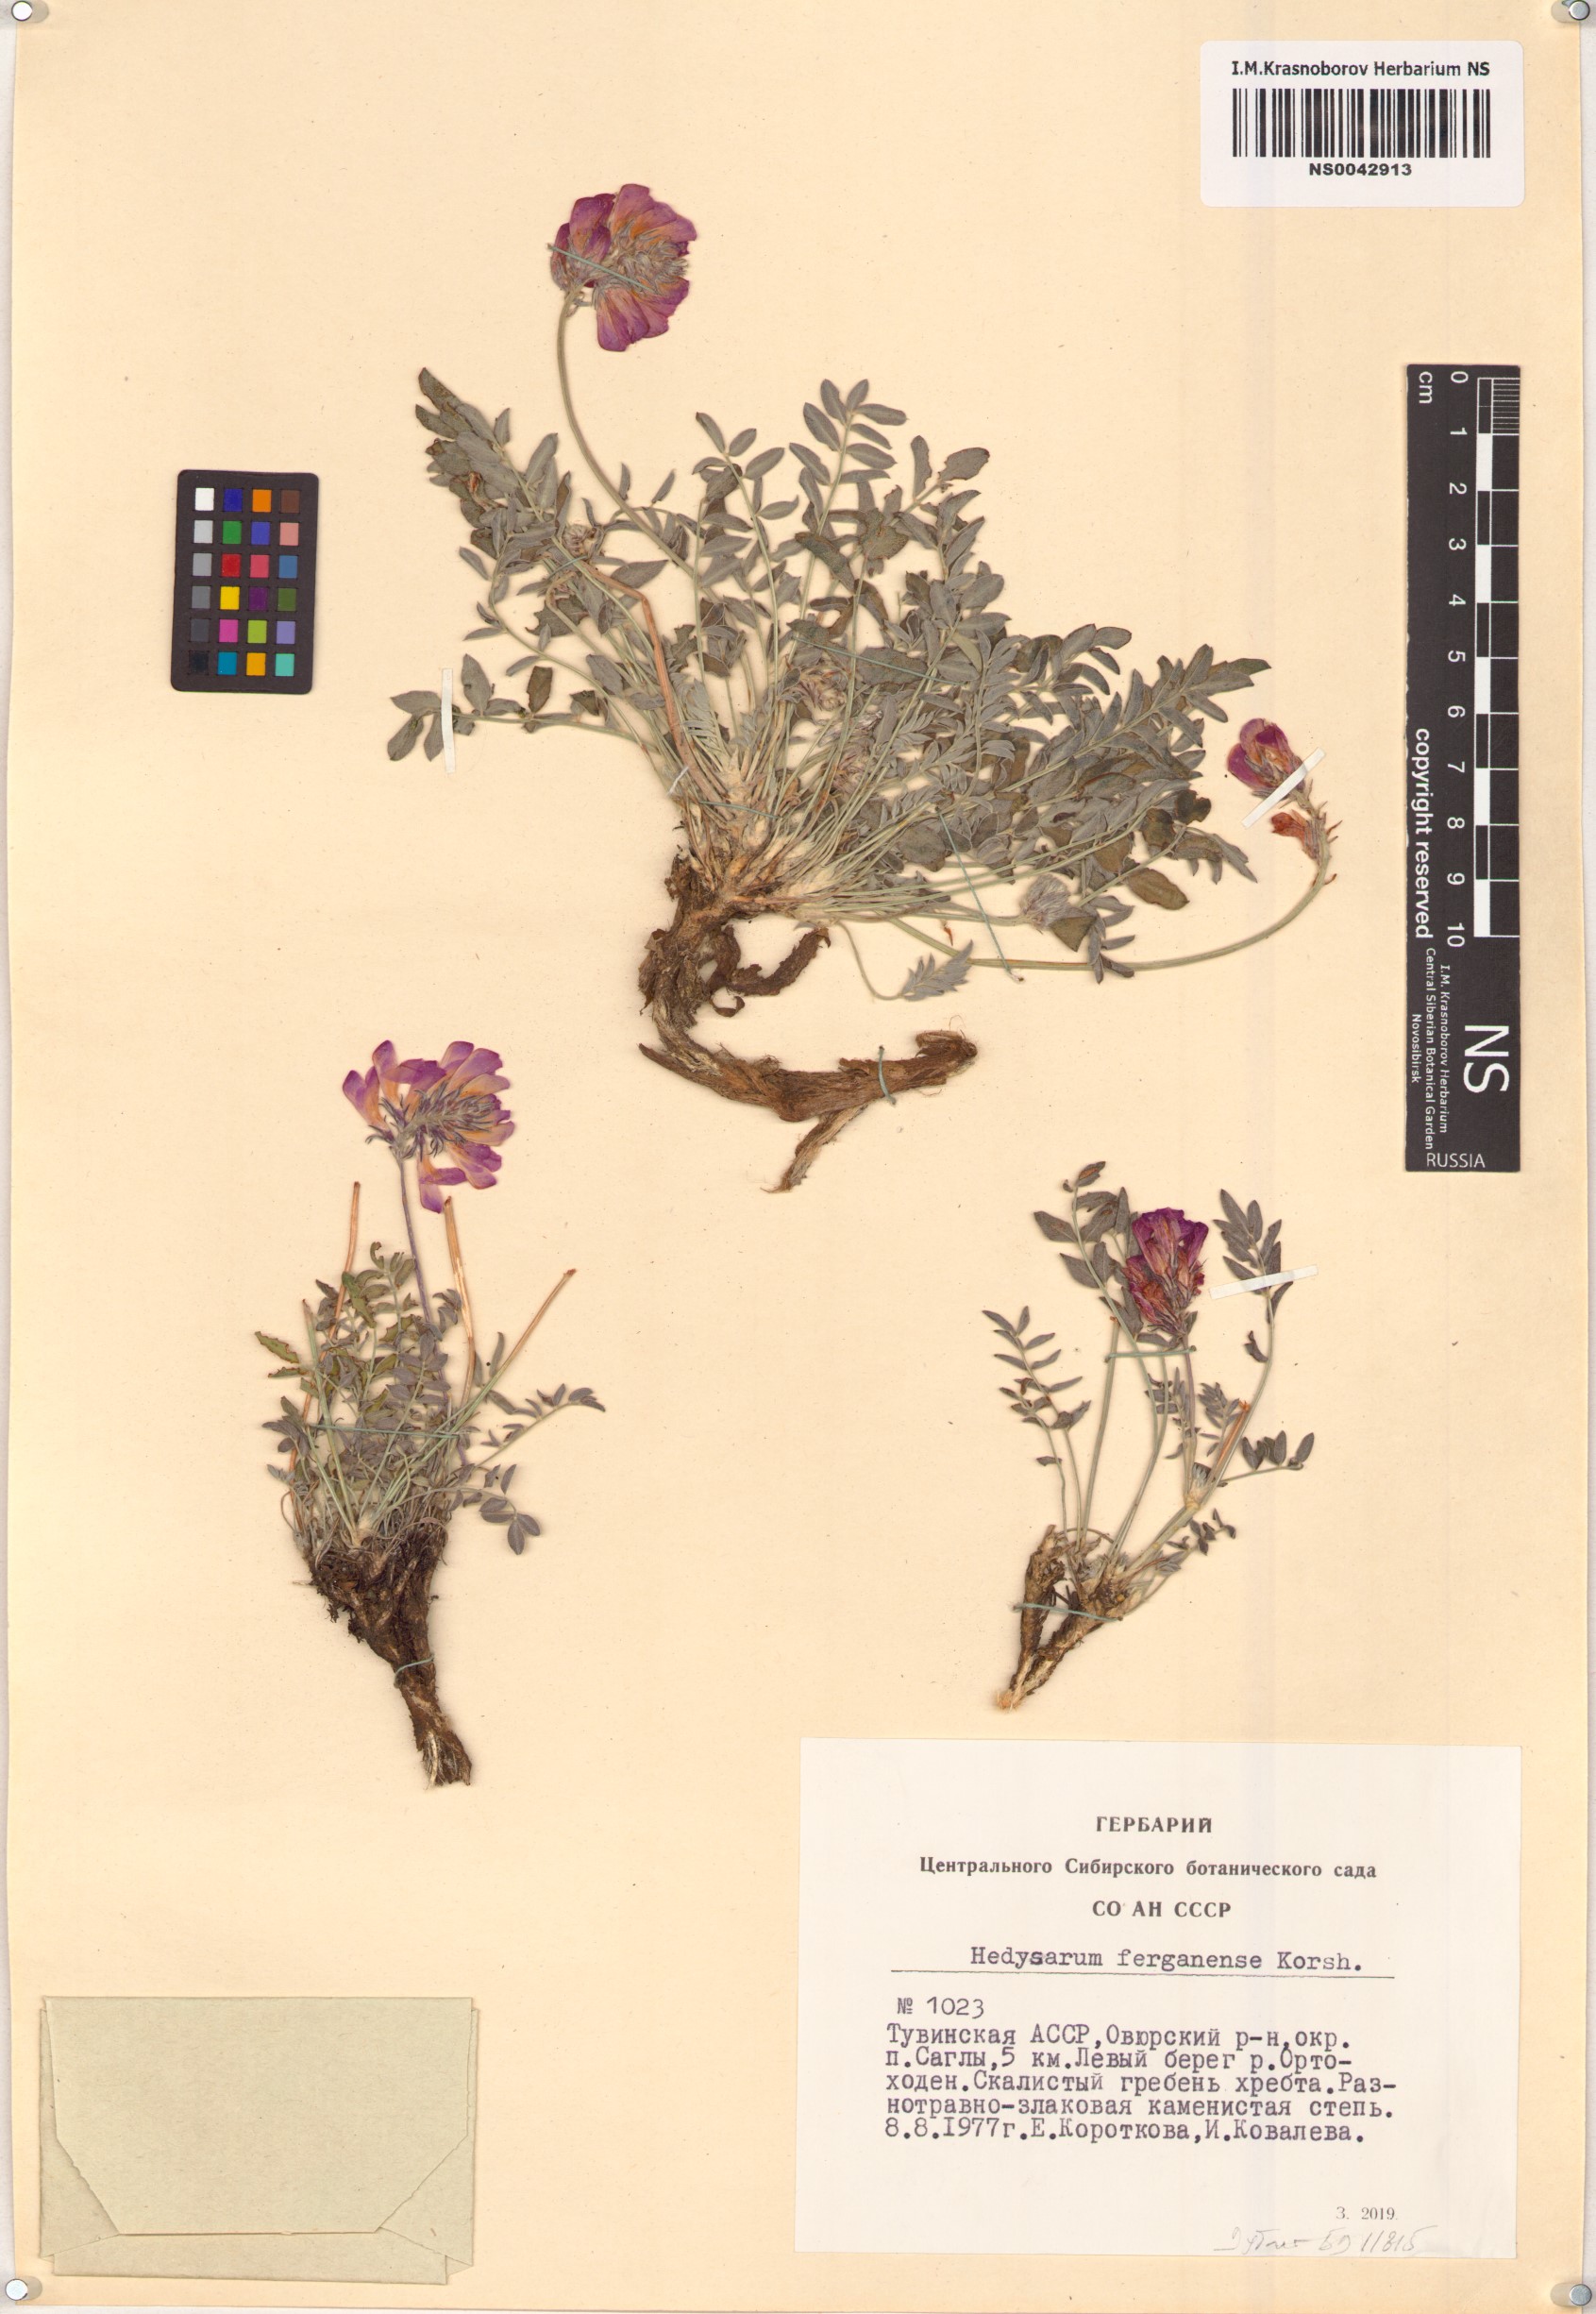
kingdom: Plantae
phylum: Tracheophyta
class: Magnoliopsida
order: Fabales
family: Fabaceae
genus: Hedysarum
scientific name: Hedysarum ferganense
